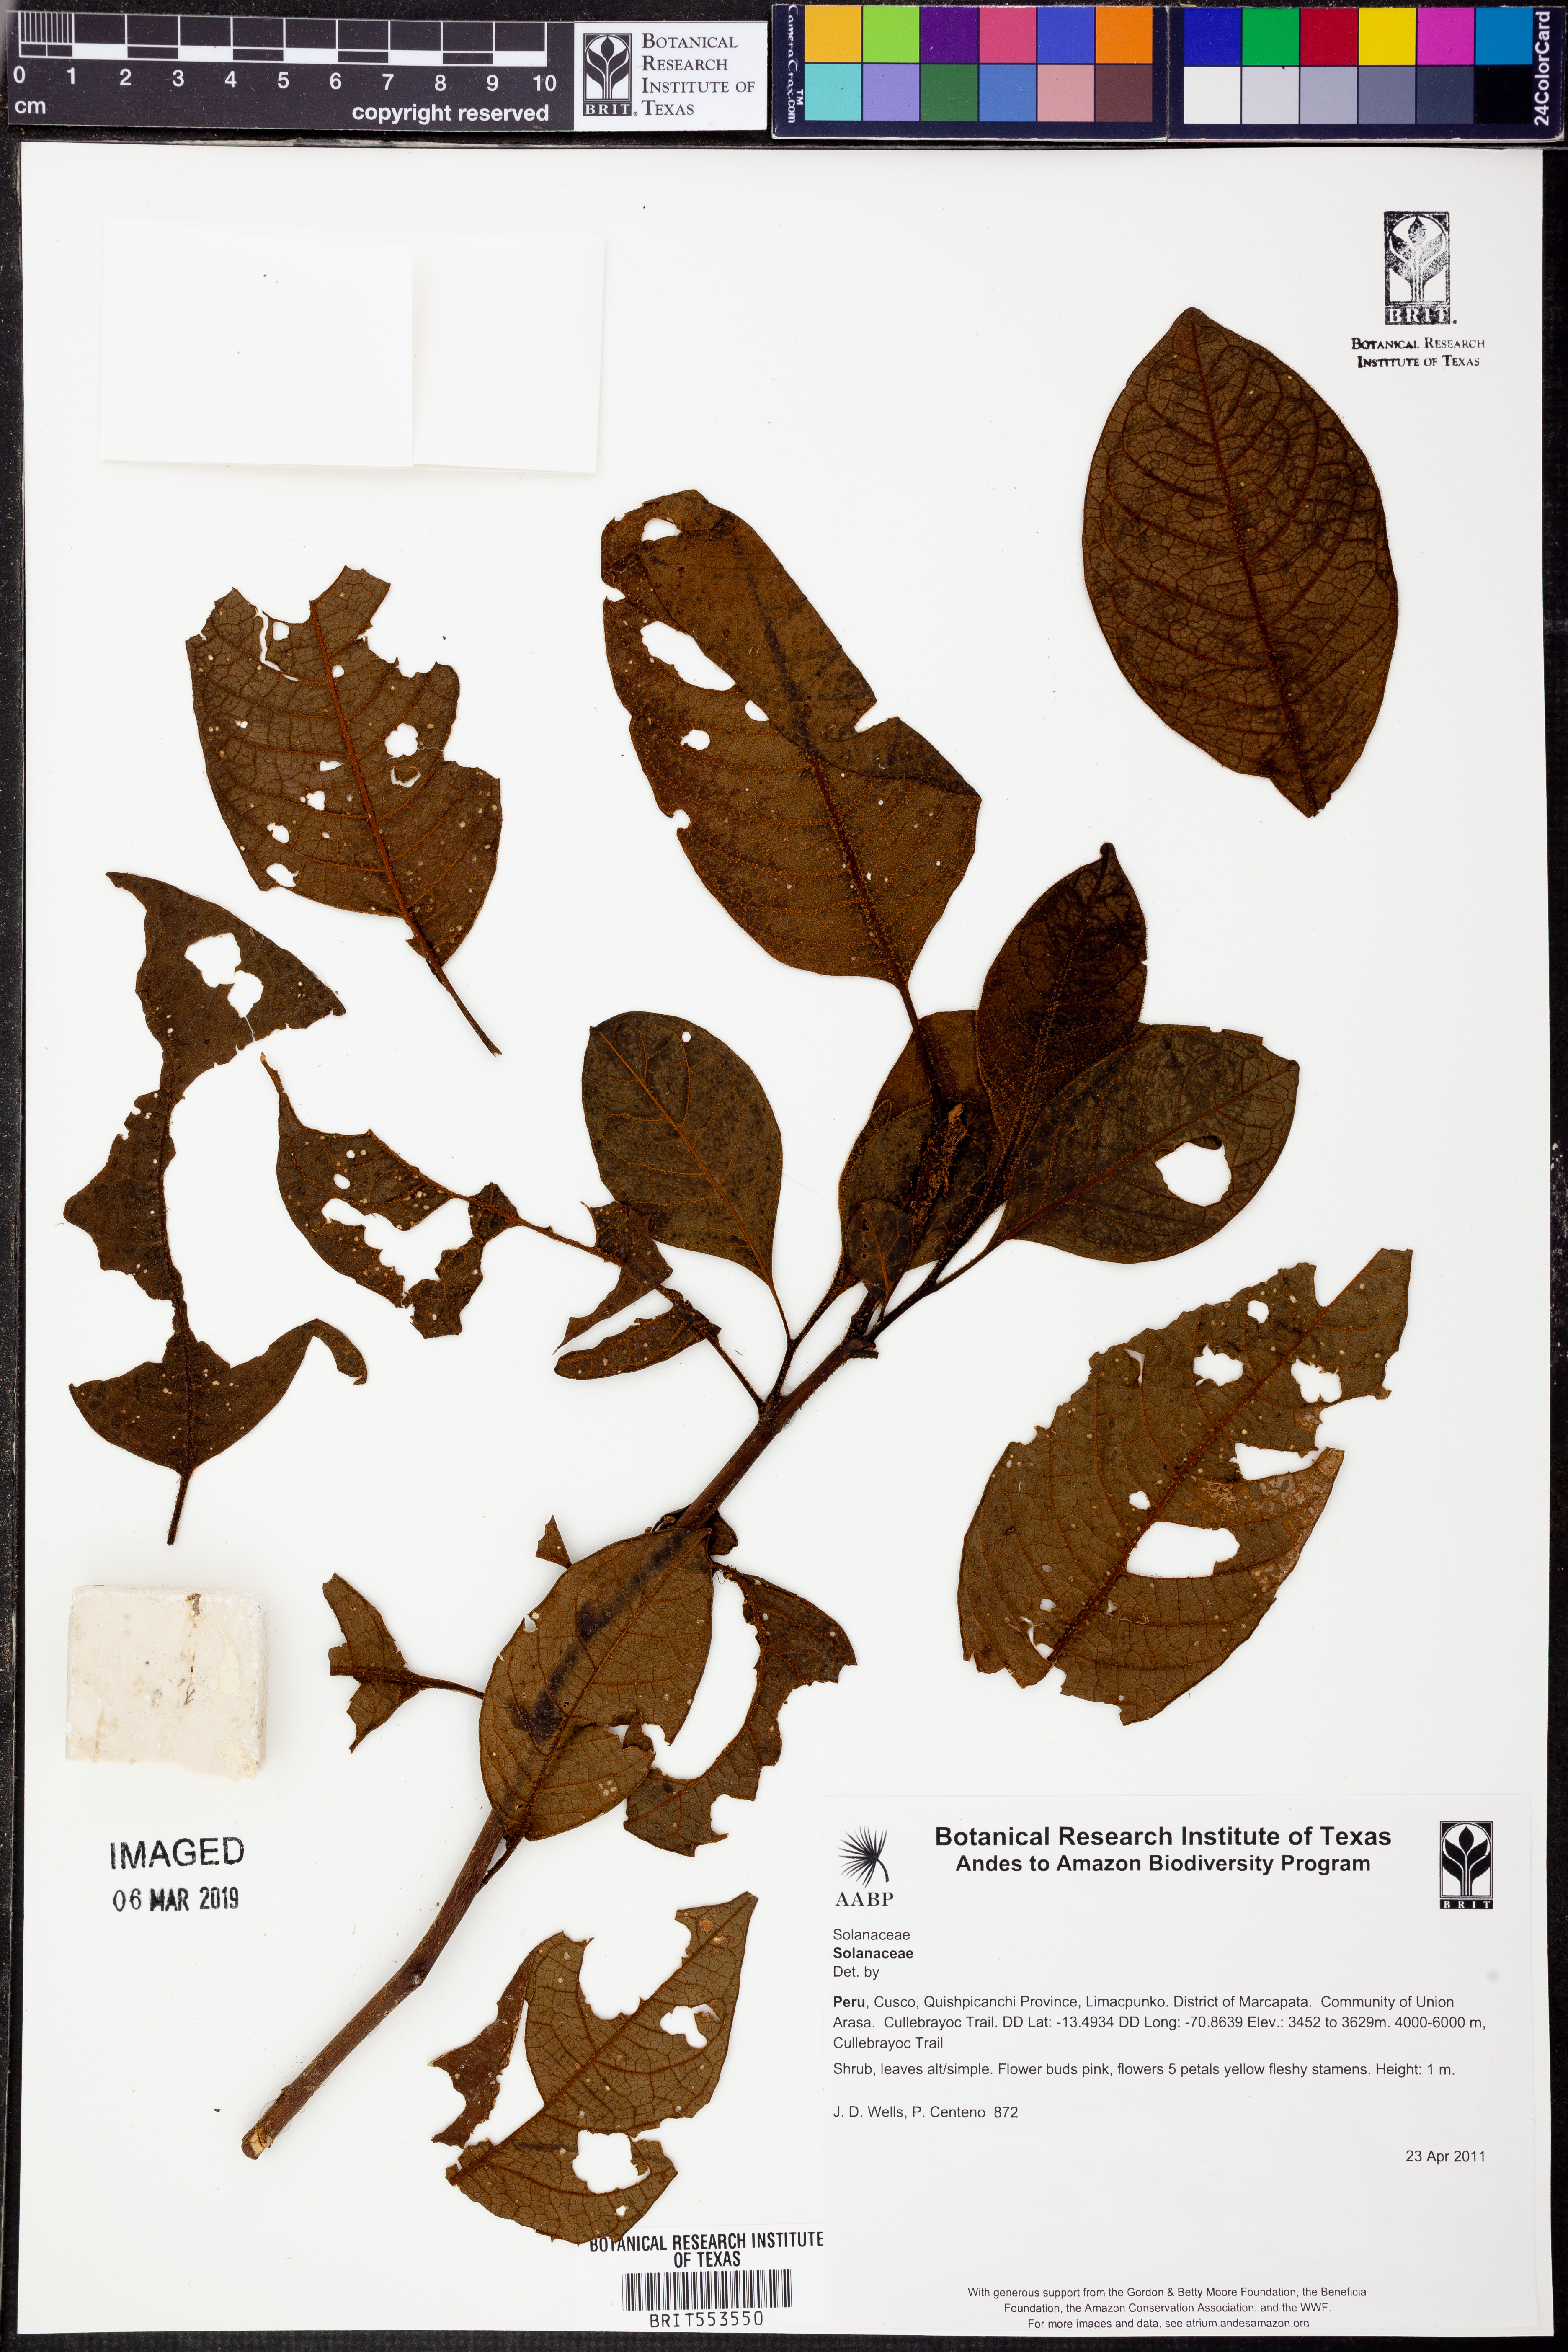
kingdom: Plantae
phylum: Tracheophyta
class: Magnoliopsida
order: Solanales
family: Solanaceae
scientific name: Solanaceae
